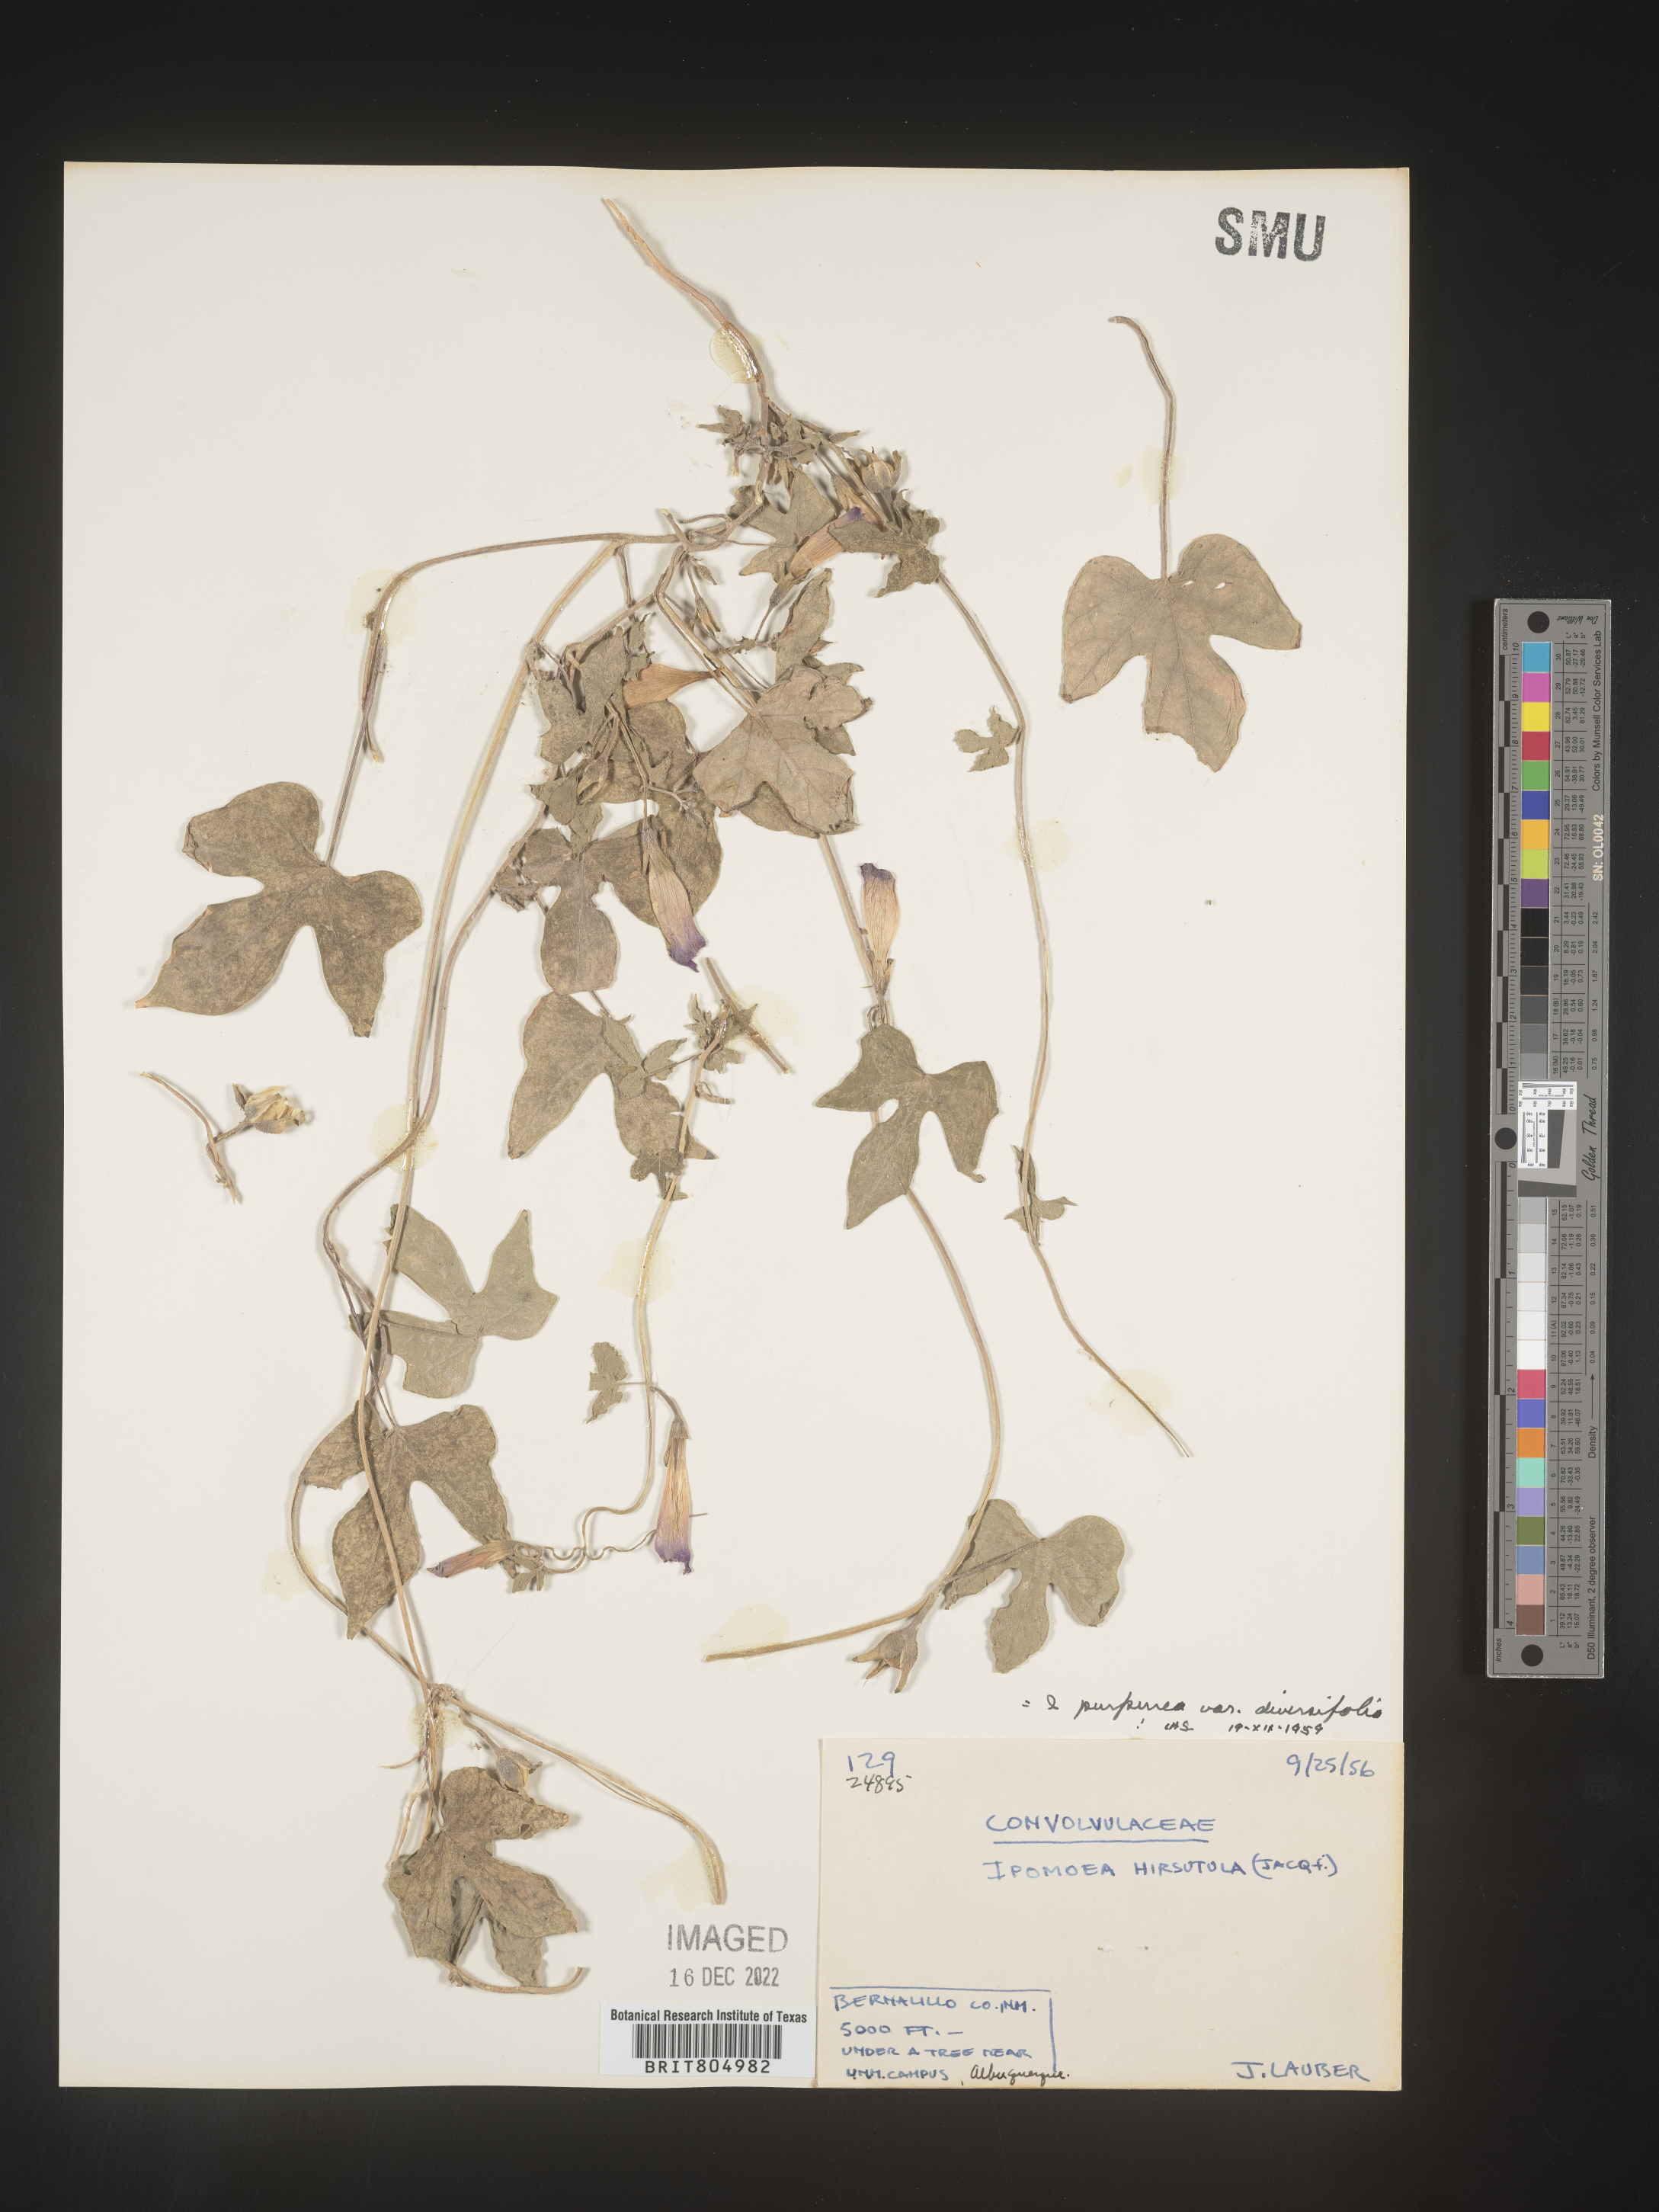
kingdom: Plantae
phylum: Tracheophyta
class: Magnoliopsida
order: Solanales
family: Convolvulaceae
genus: Ipomoea
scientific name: Ipomoea purpurea
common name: Common morning-glory
